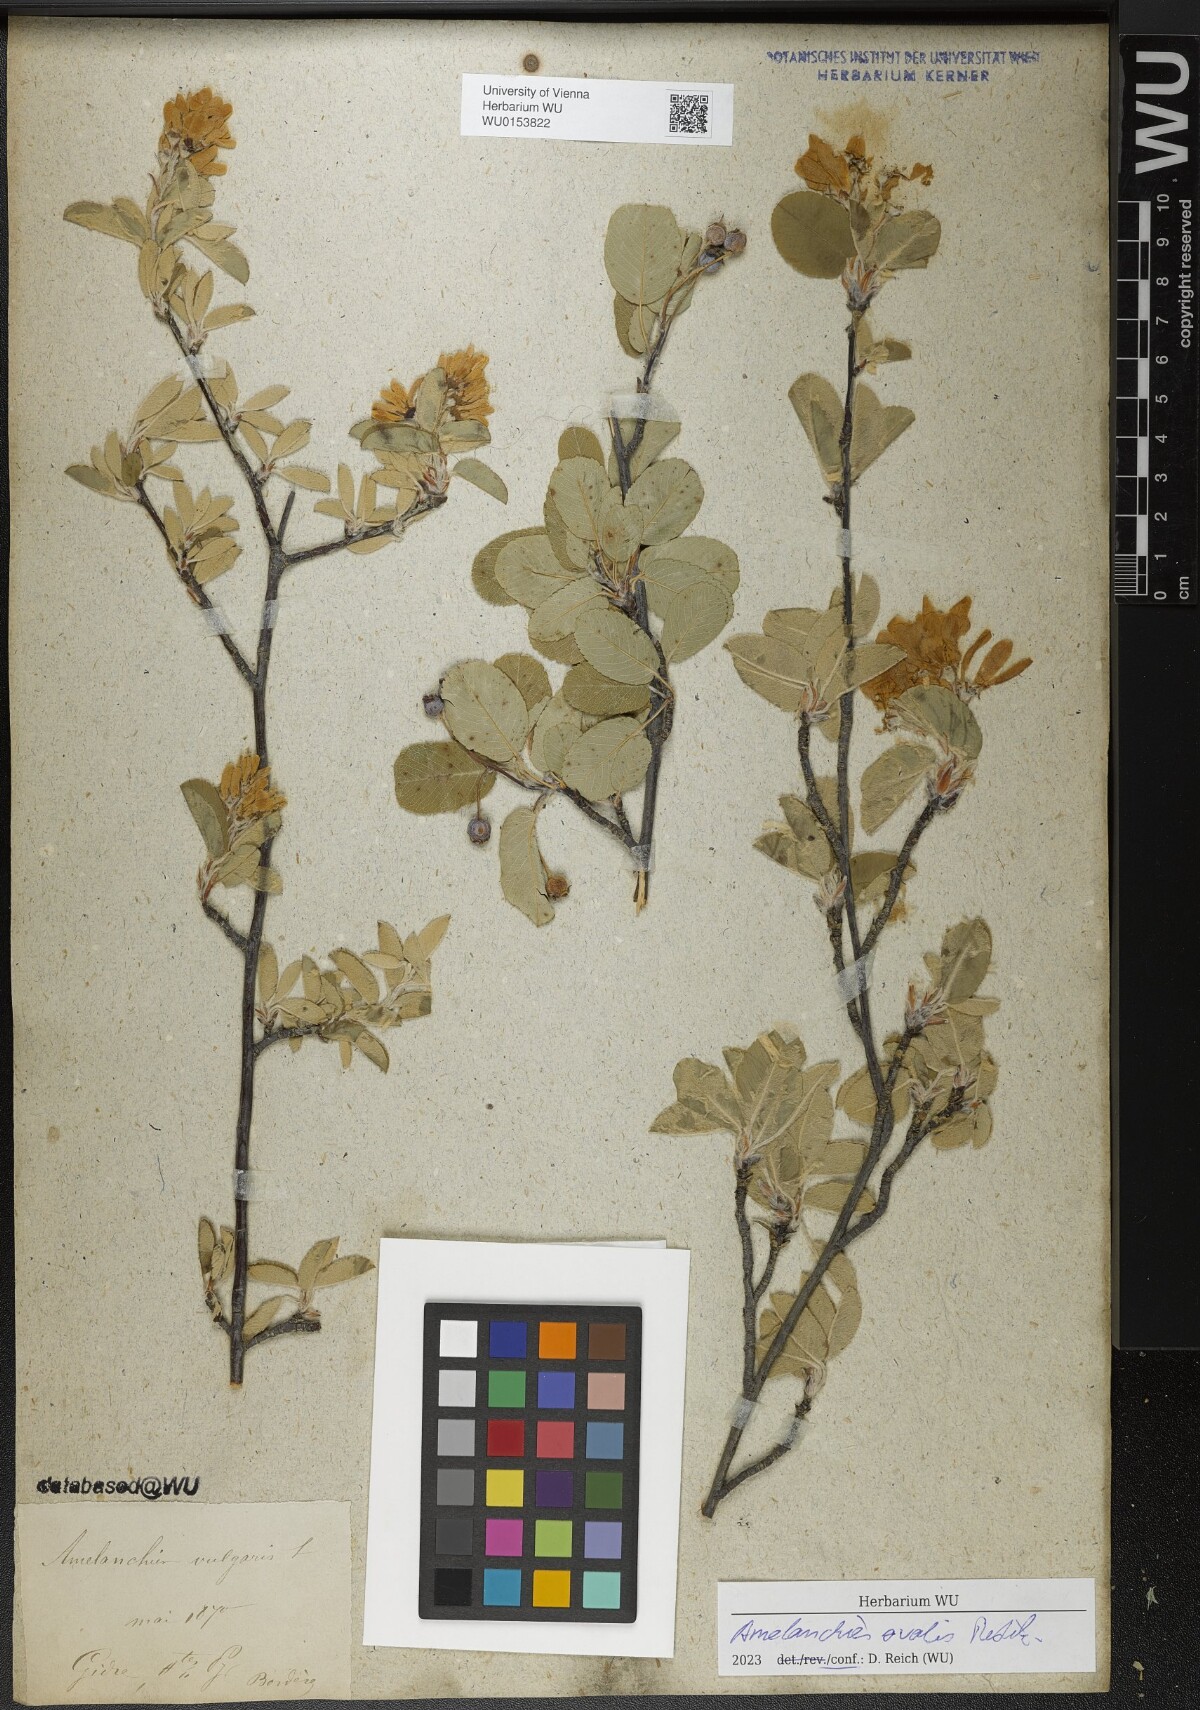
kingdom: Plantae
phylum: Tracheophyta
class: Magnoliopsida
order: Rosales
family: Rosaceae
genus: Amelanchier
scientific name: Amelanchier ovalis
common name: Serviceberry
